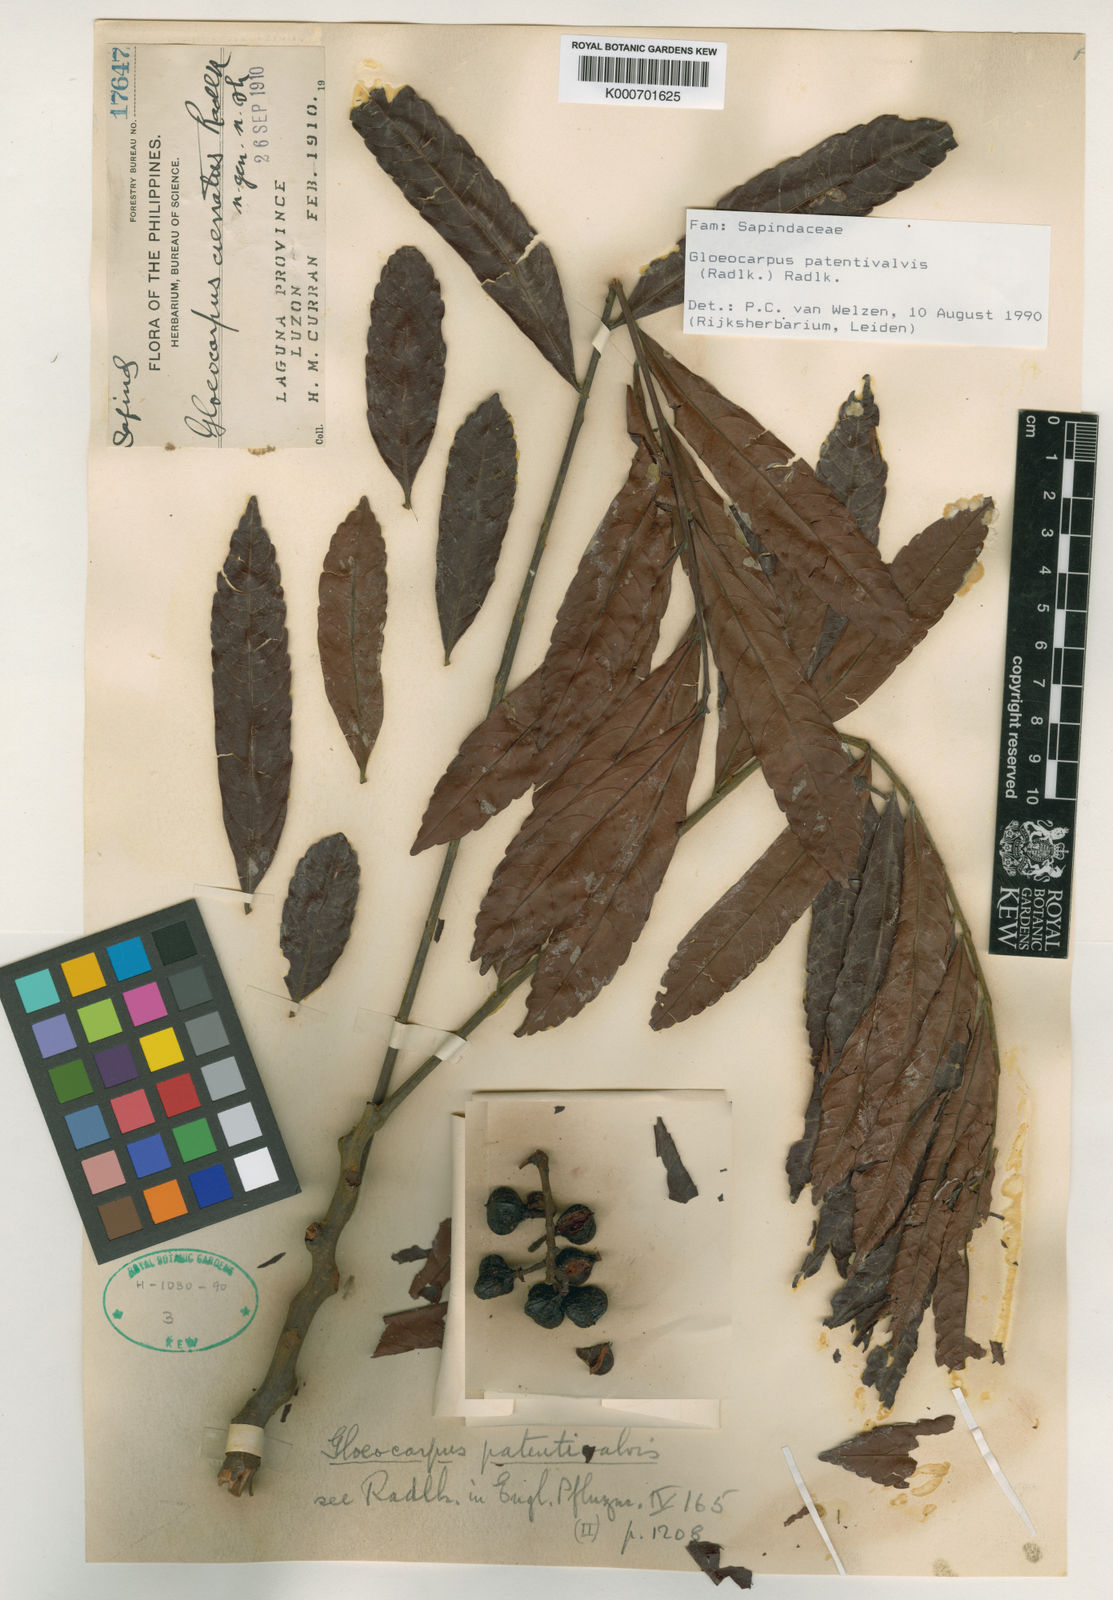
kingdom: Plantae
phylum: Tracheophyta
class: Magnoliopsida
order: Sapindales
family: Sapindaceae
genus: Gloeocarpus
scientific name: Gloeocarpus patentivalvis
